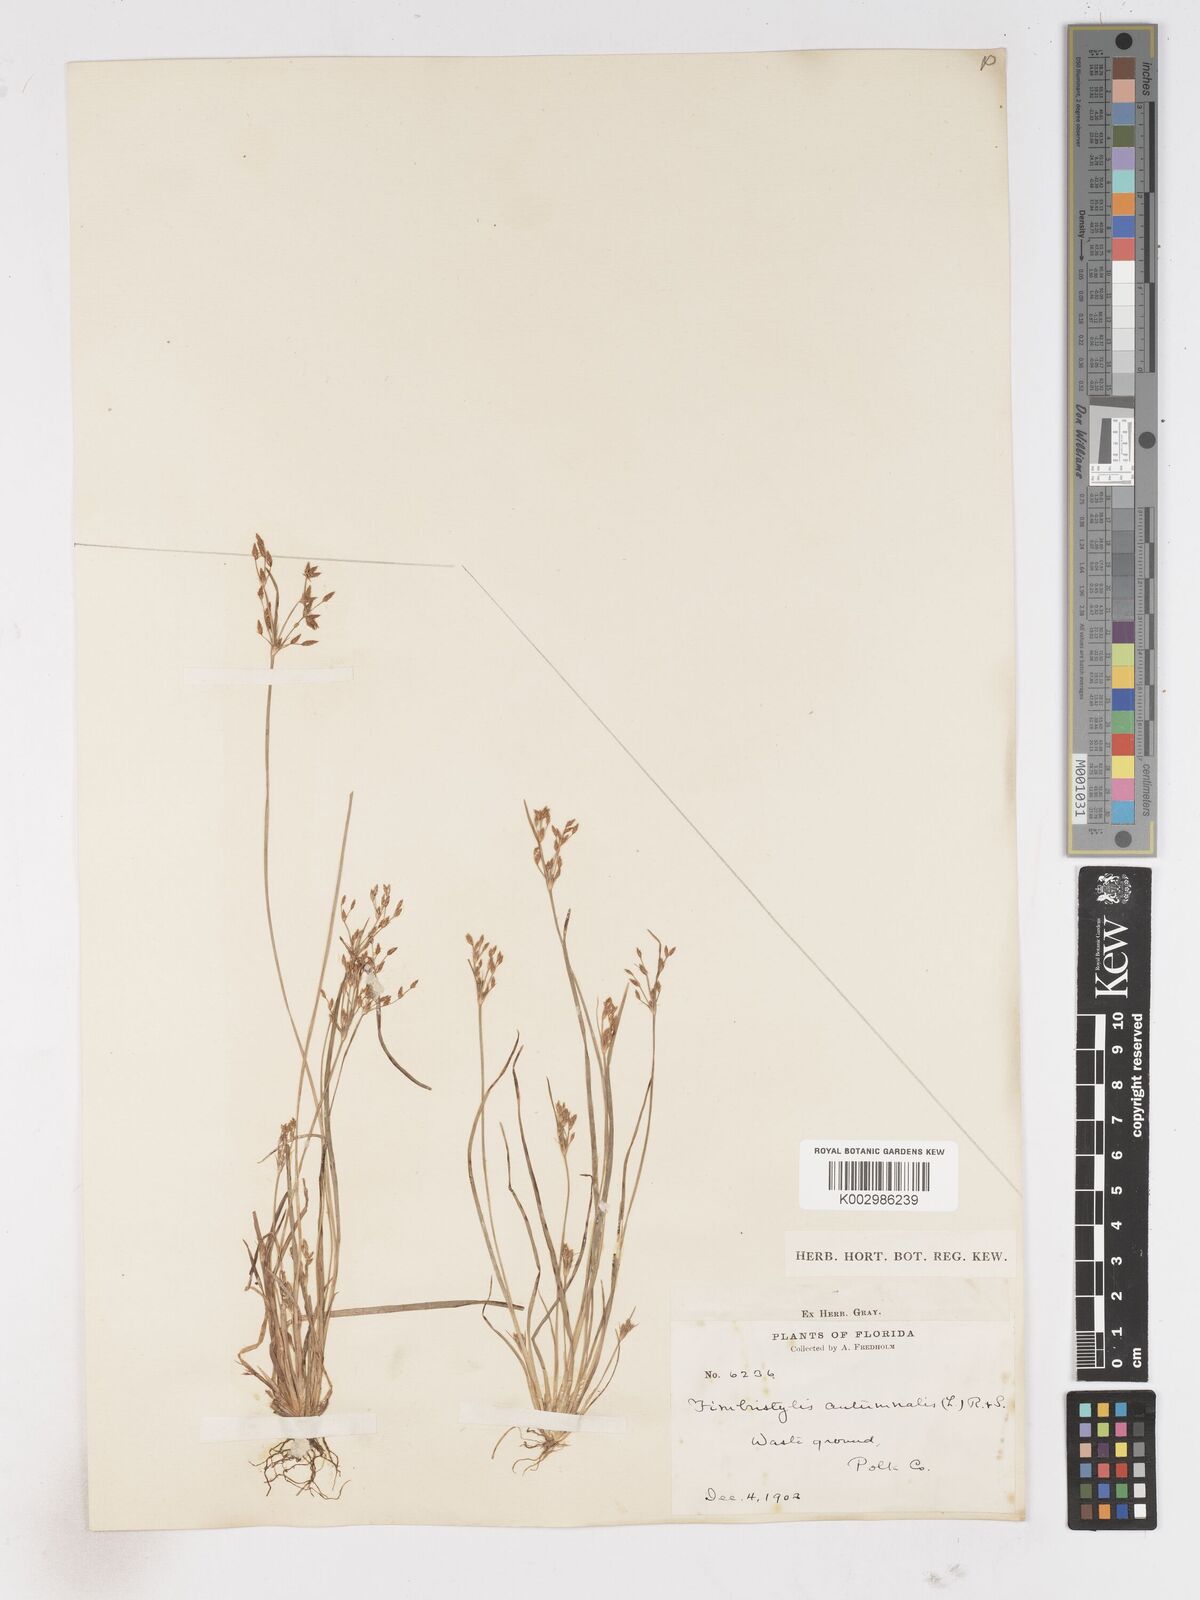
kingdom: Plantae
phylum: Tracheophyta
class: Liliopsida
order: Poales
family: Cyperaceae
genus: Fimbristylis
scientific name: Fimbristylis autumnalis
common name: Slender fimbristylis
